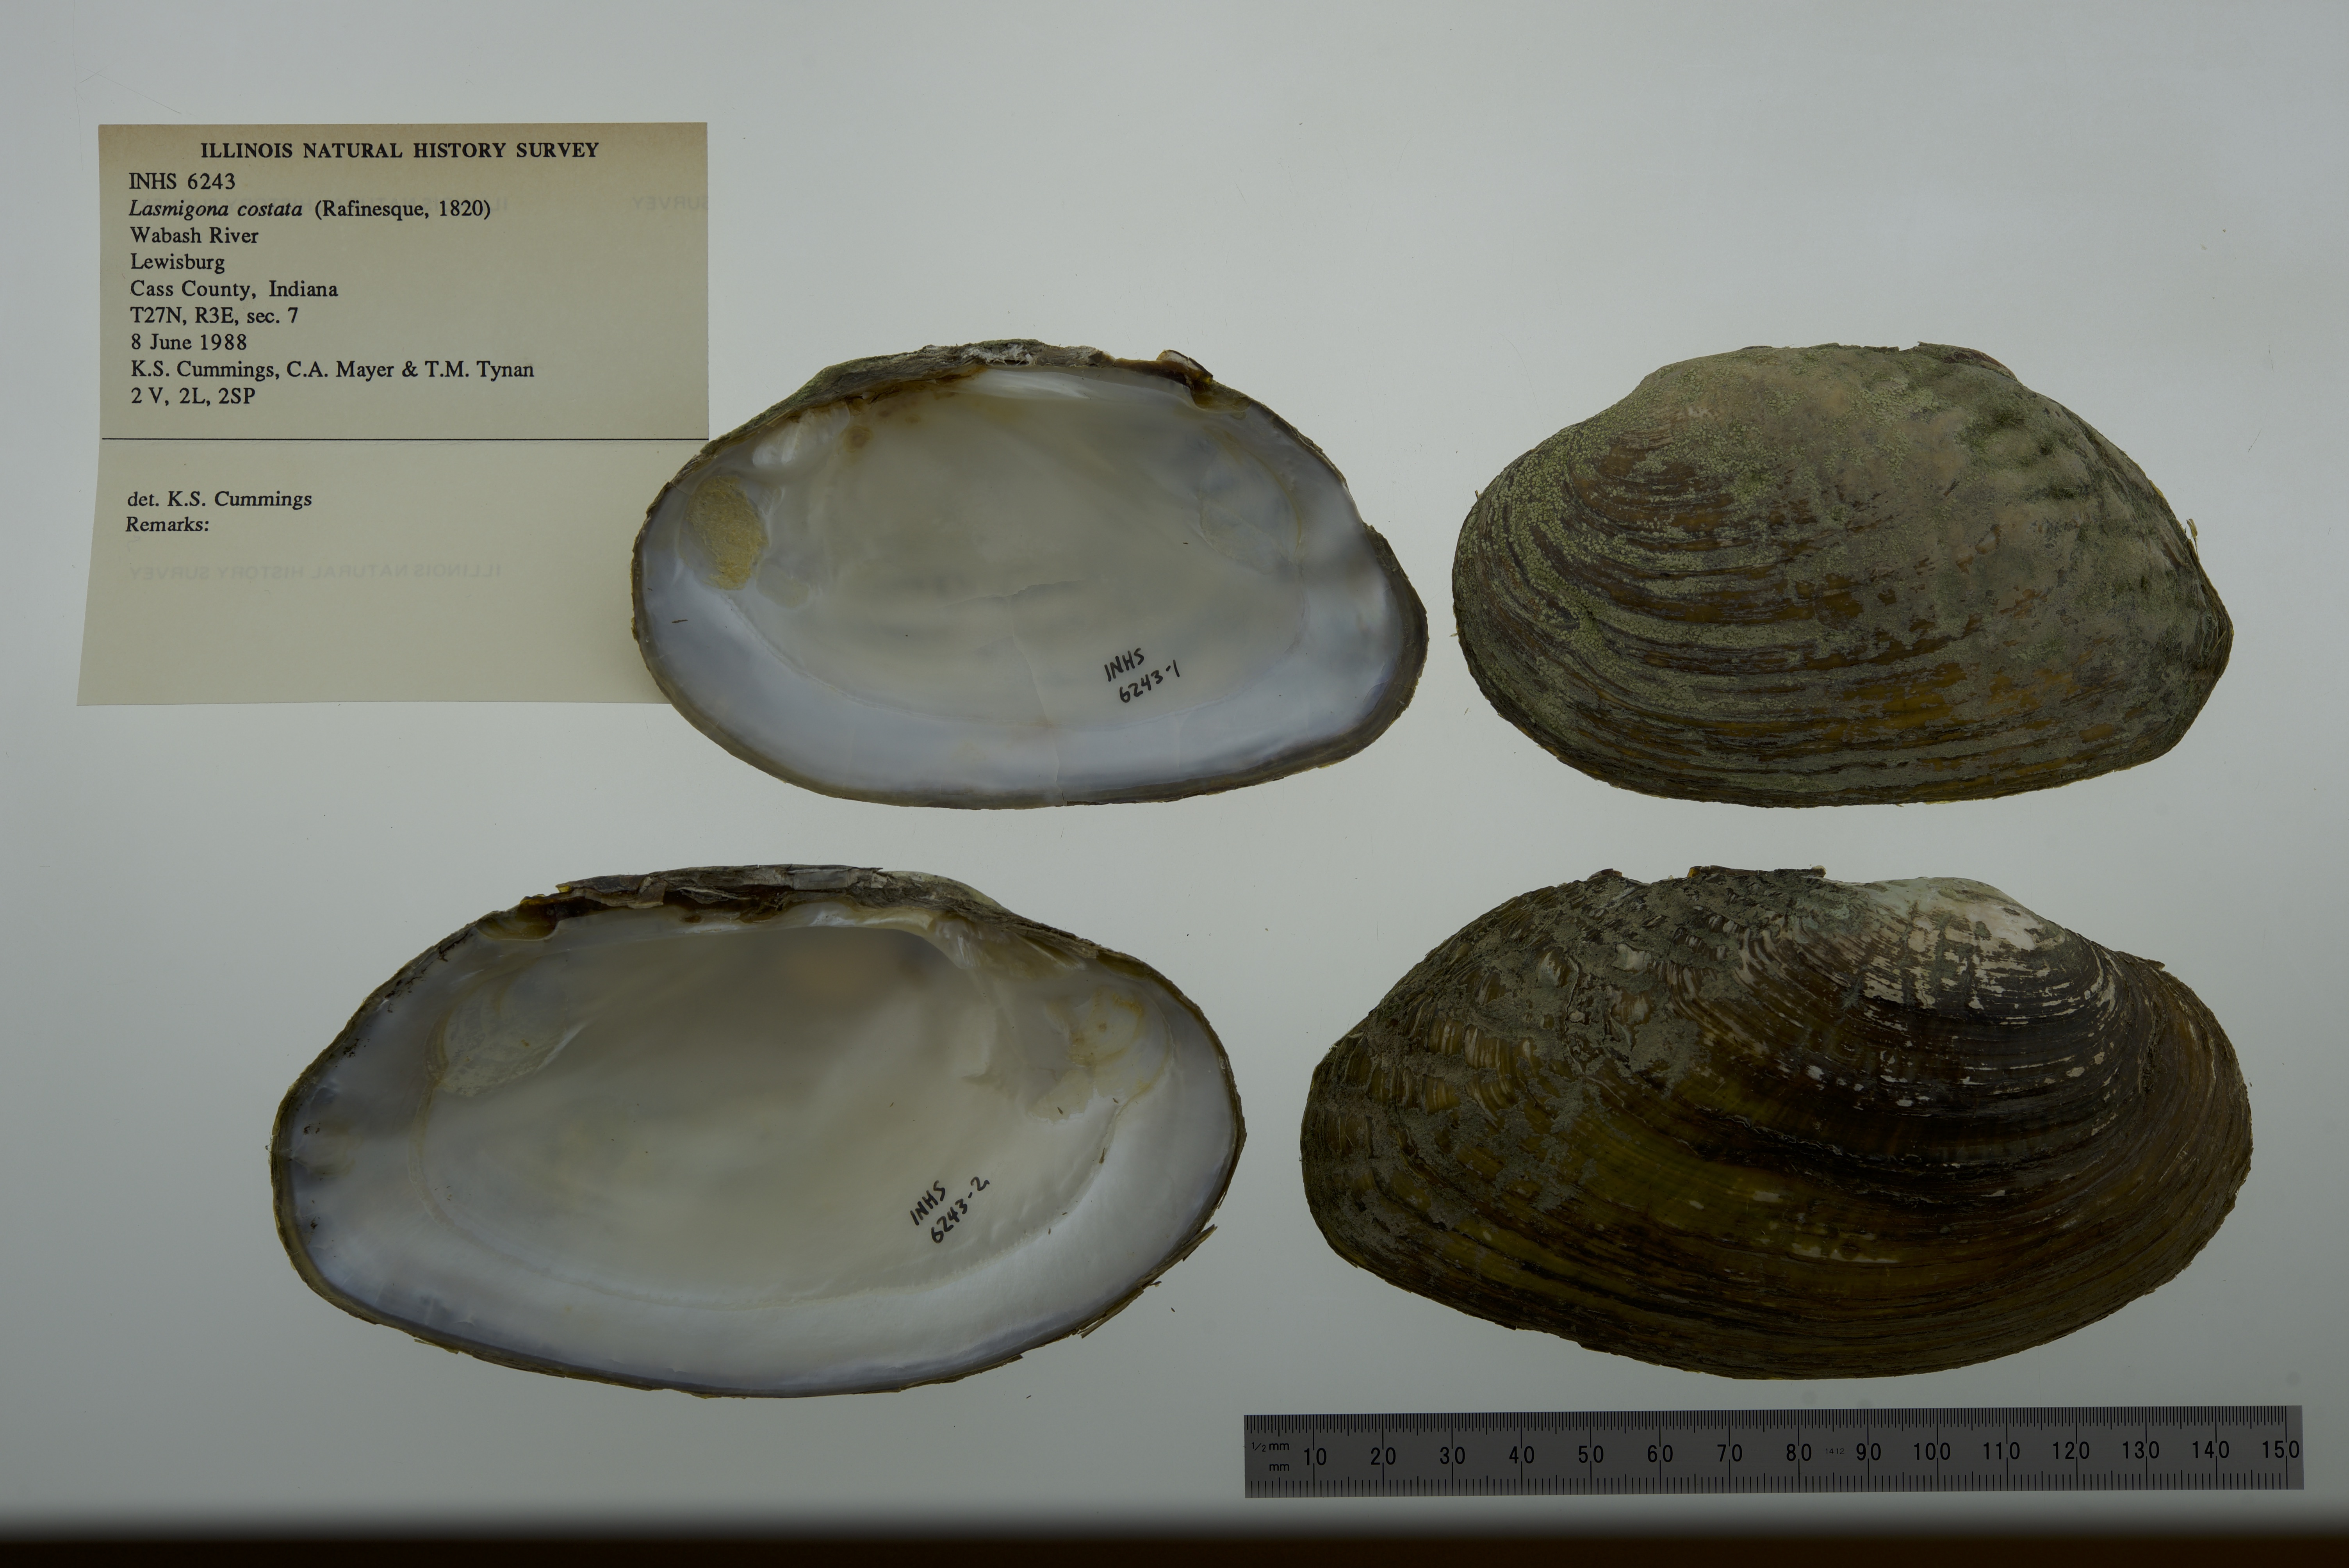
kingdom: Animalia
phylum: Mollusca
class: Bivalvia
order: Unionida
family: Unionidae
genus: Lasmigona
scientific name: Lasmigona costata
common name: Flutedshell
